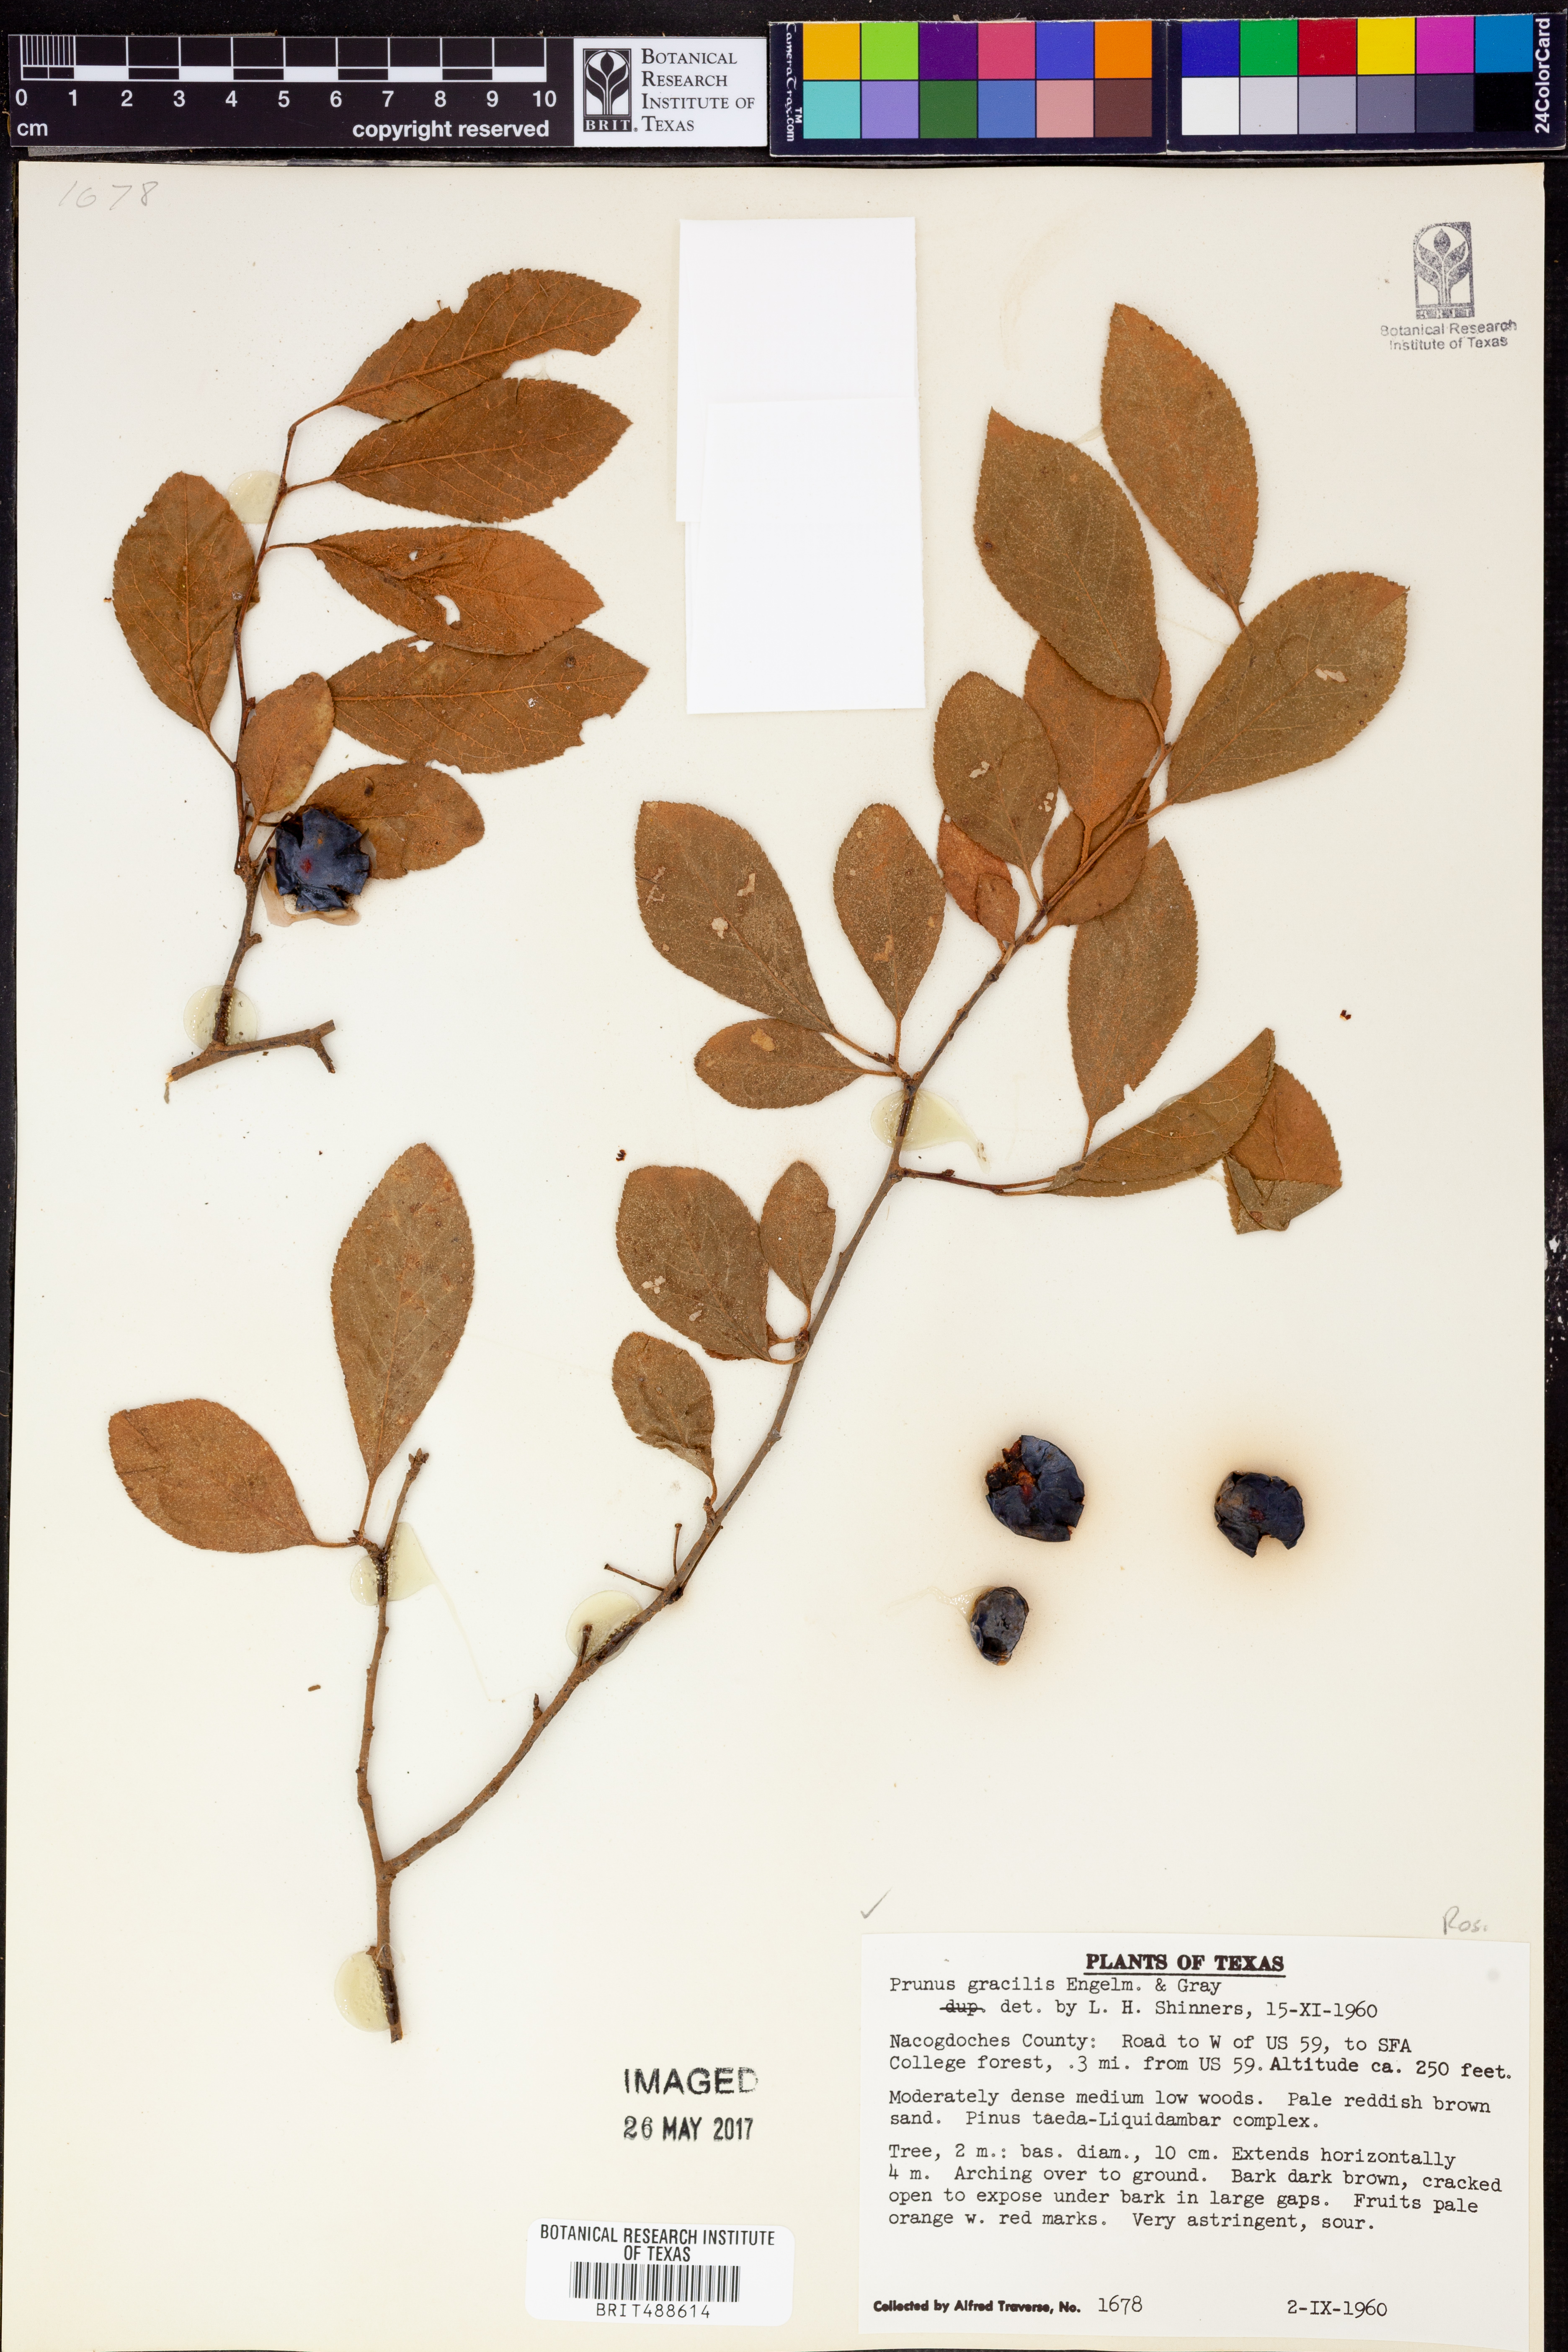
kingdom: Plantae
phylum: Tracheophyta
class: Magnoliopsida
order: Rosales
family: Rosaceae
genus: Prunus
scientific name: Prunus gracilis
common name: Oklahoma plum
